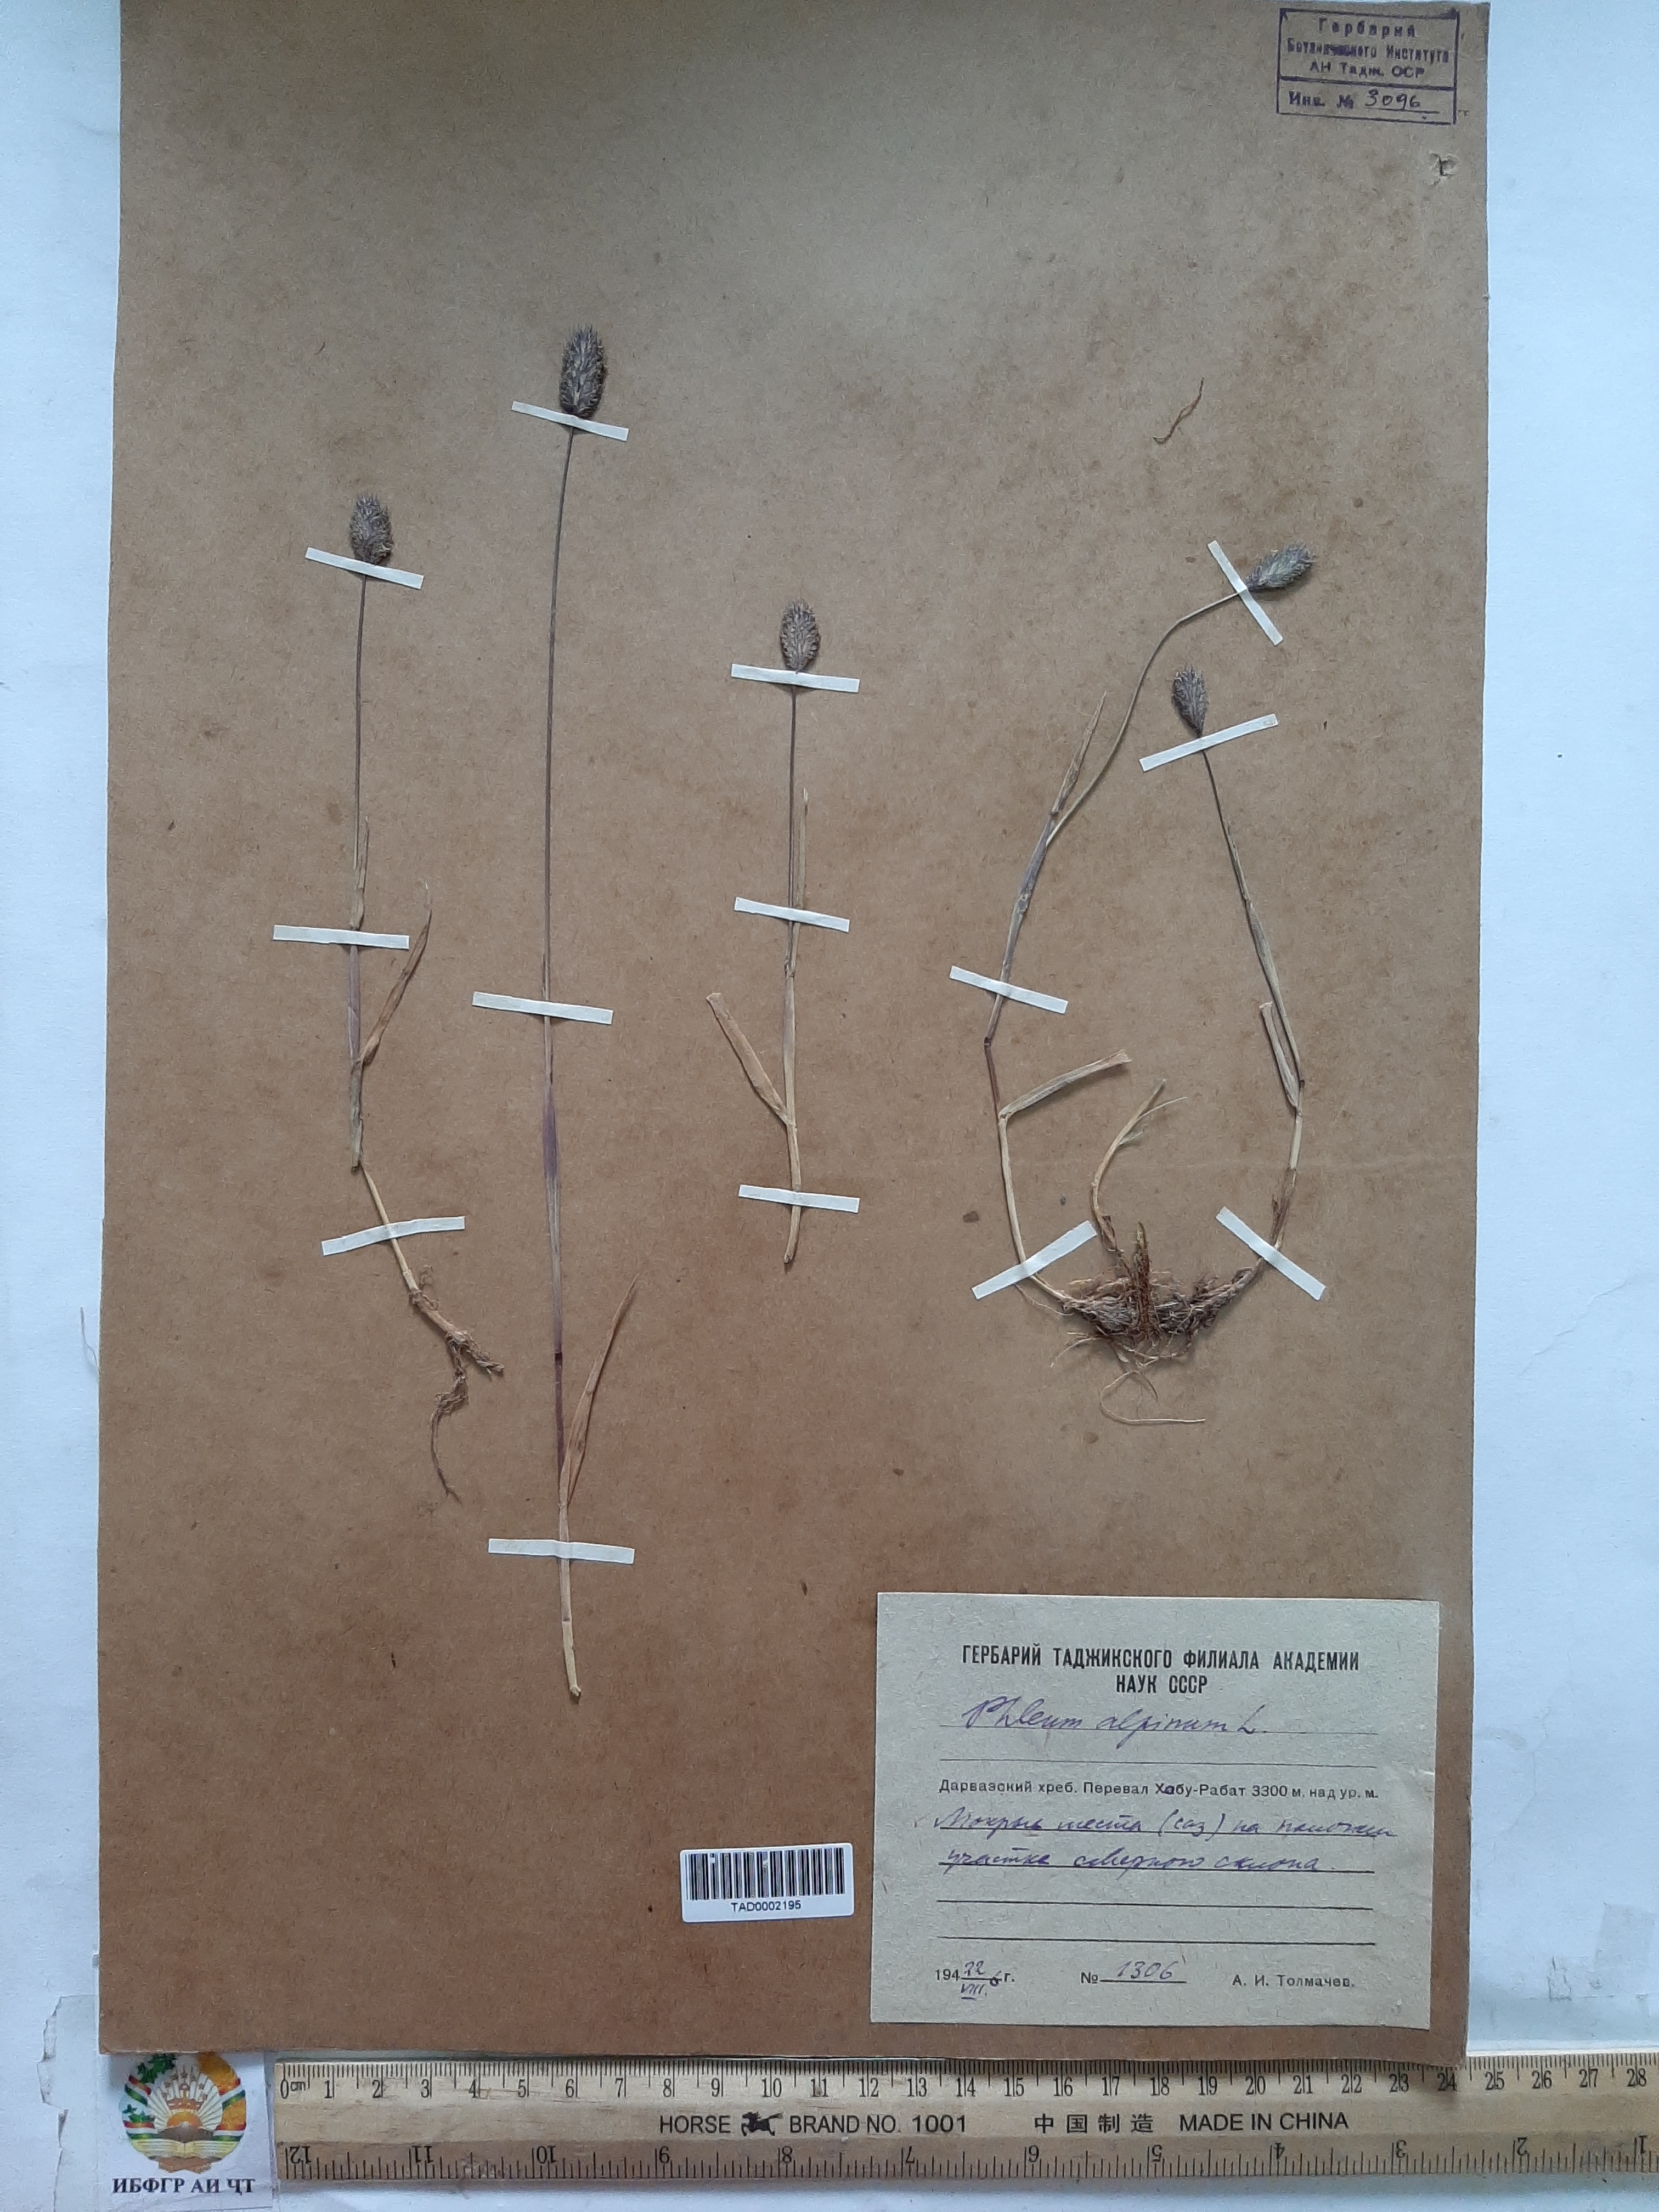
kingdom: Plantae
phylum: Tracheophyta
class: Liliopsida
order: Poales
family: Poaceae
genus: Phleum
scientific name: Phleum alpinum
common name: Alpine cat's-tail
